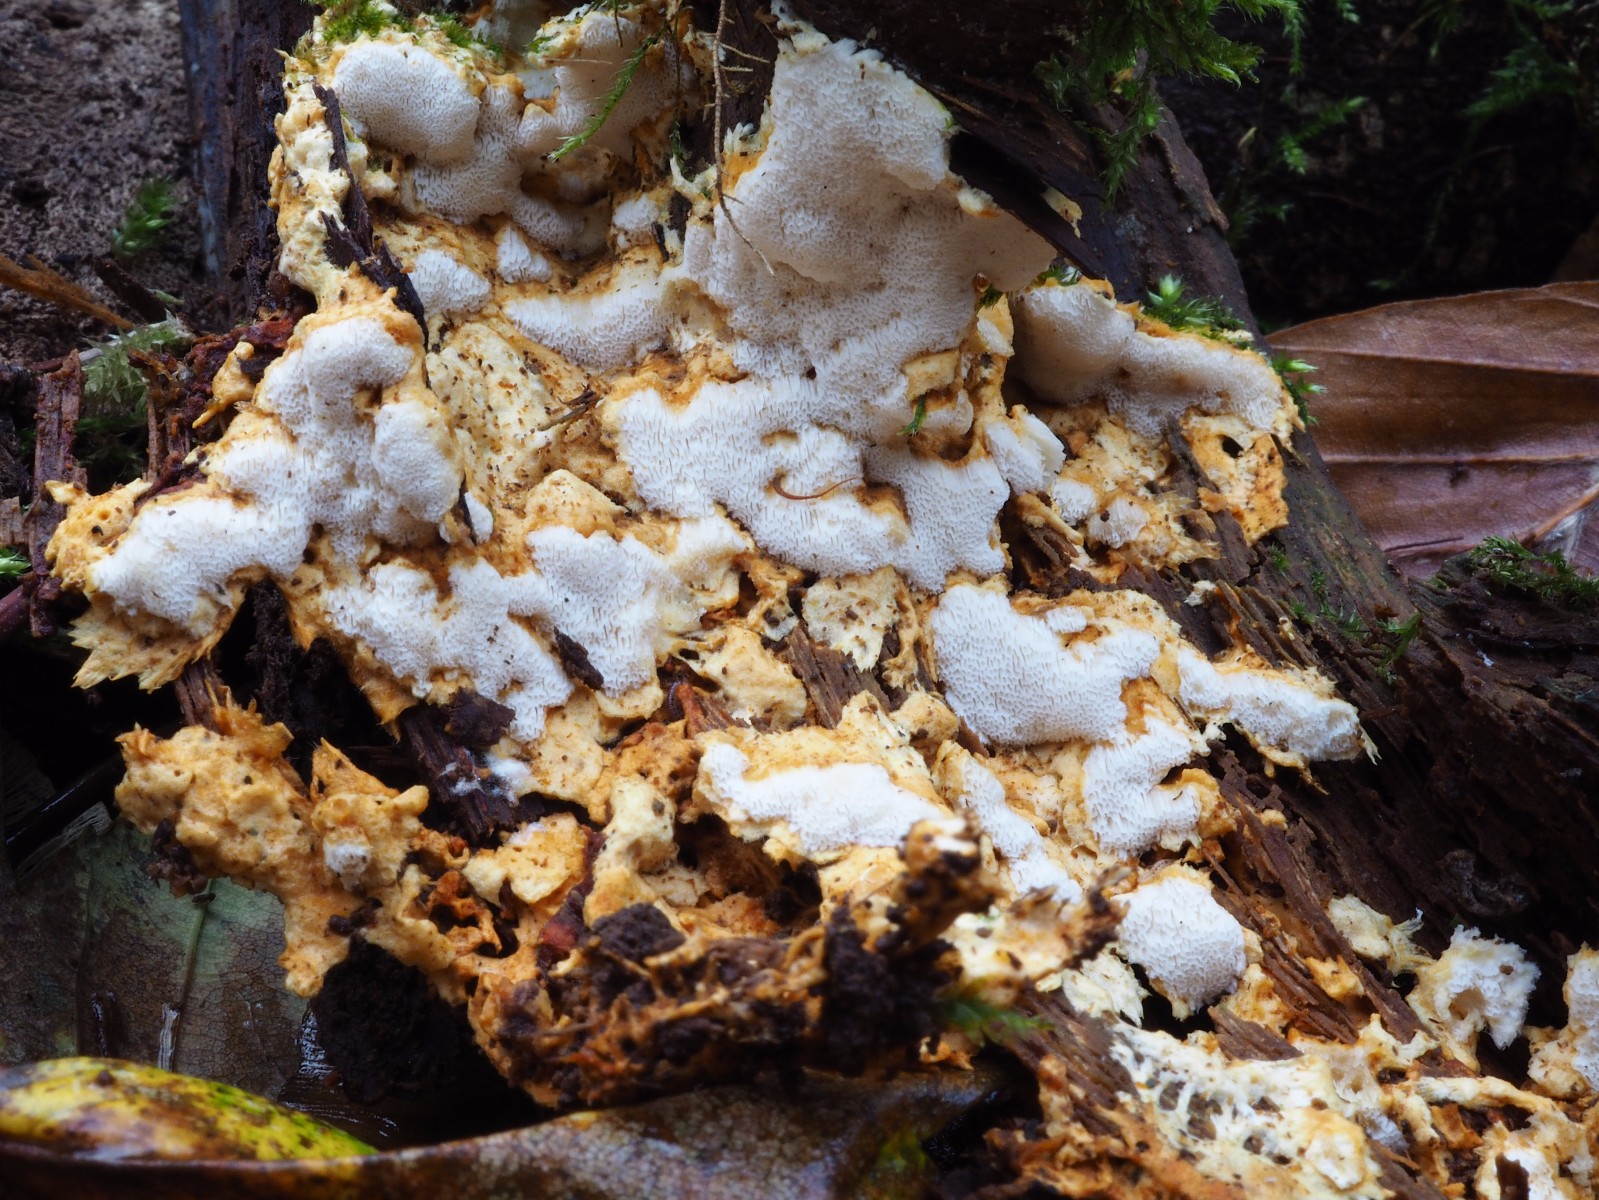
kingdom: Fungi
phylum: Basidiomycota
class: Agaricomycetes
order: Polyporales
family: Steccherinaceae
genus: Loweomyces
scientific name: Loweomyces wynneae
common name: krybende blødporesvamp
